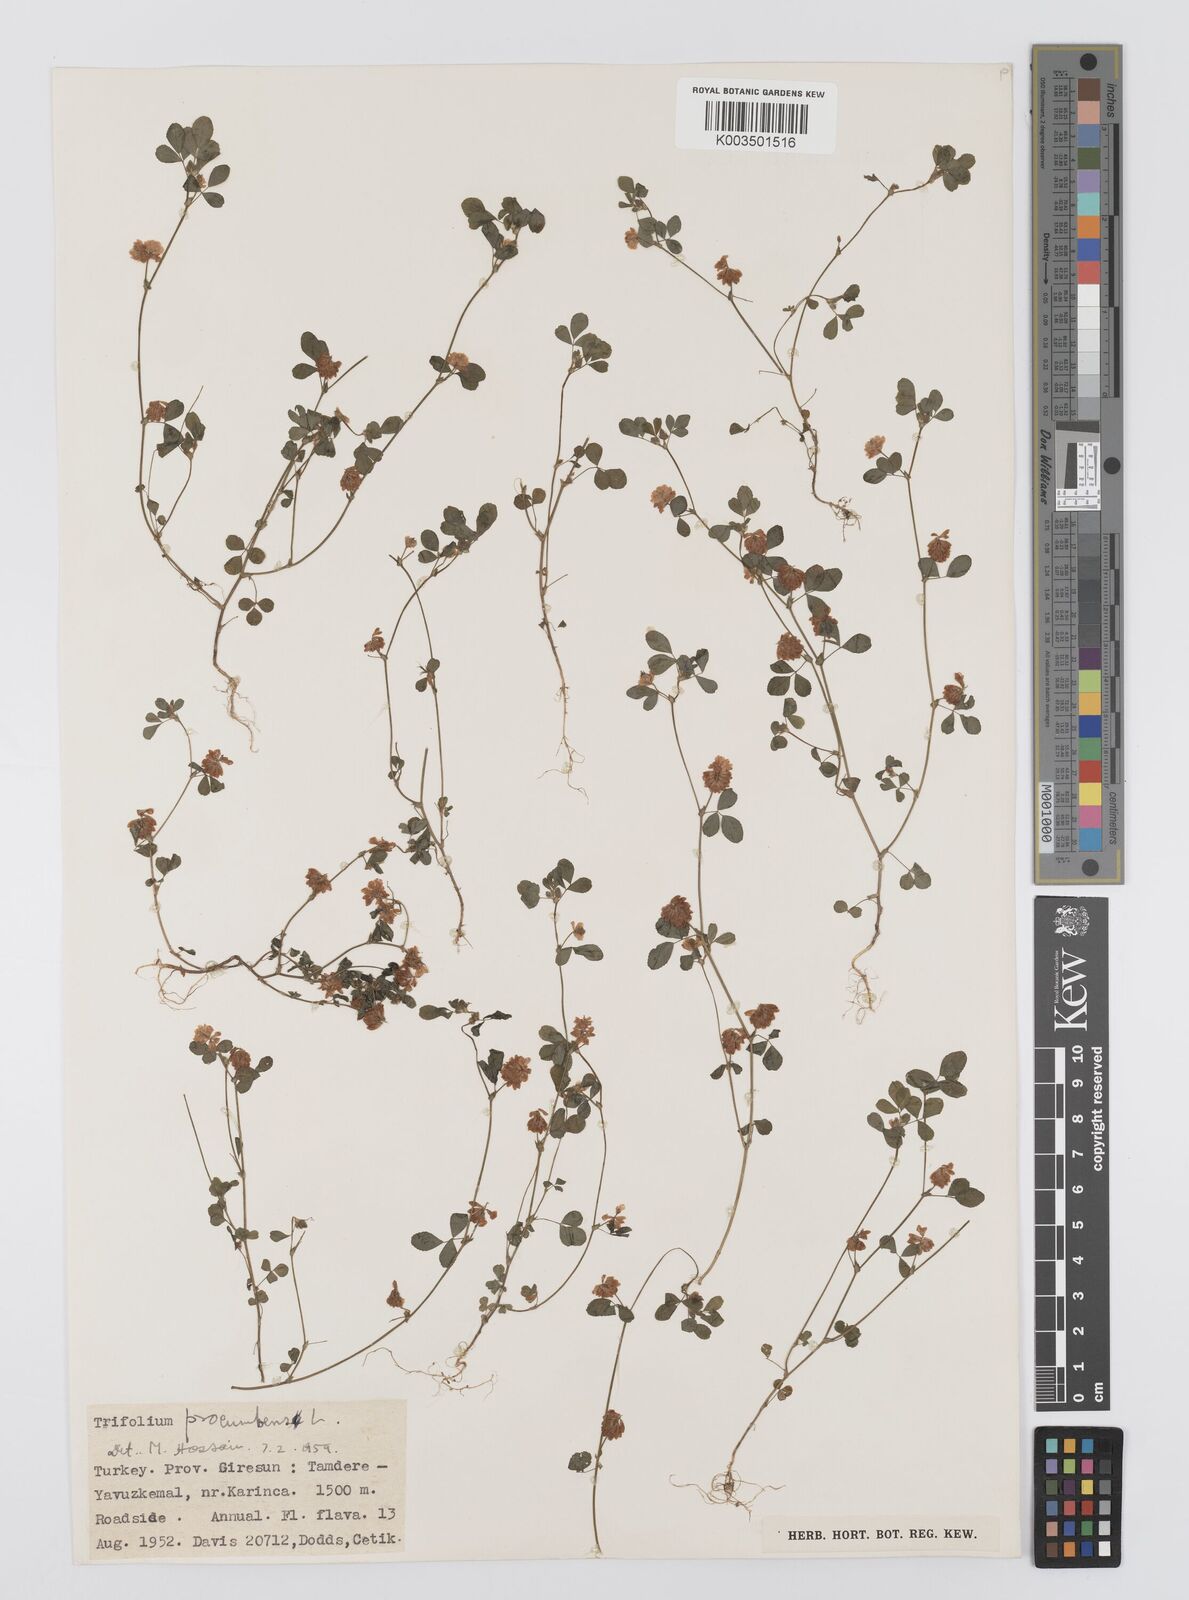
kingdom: Plantae
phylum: Tracheophyta
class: Magnoliopsida
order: Fabales
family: Fabaceae
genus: Trifolium
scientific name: Trifolium campestre
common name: Field clover
